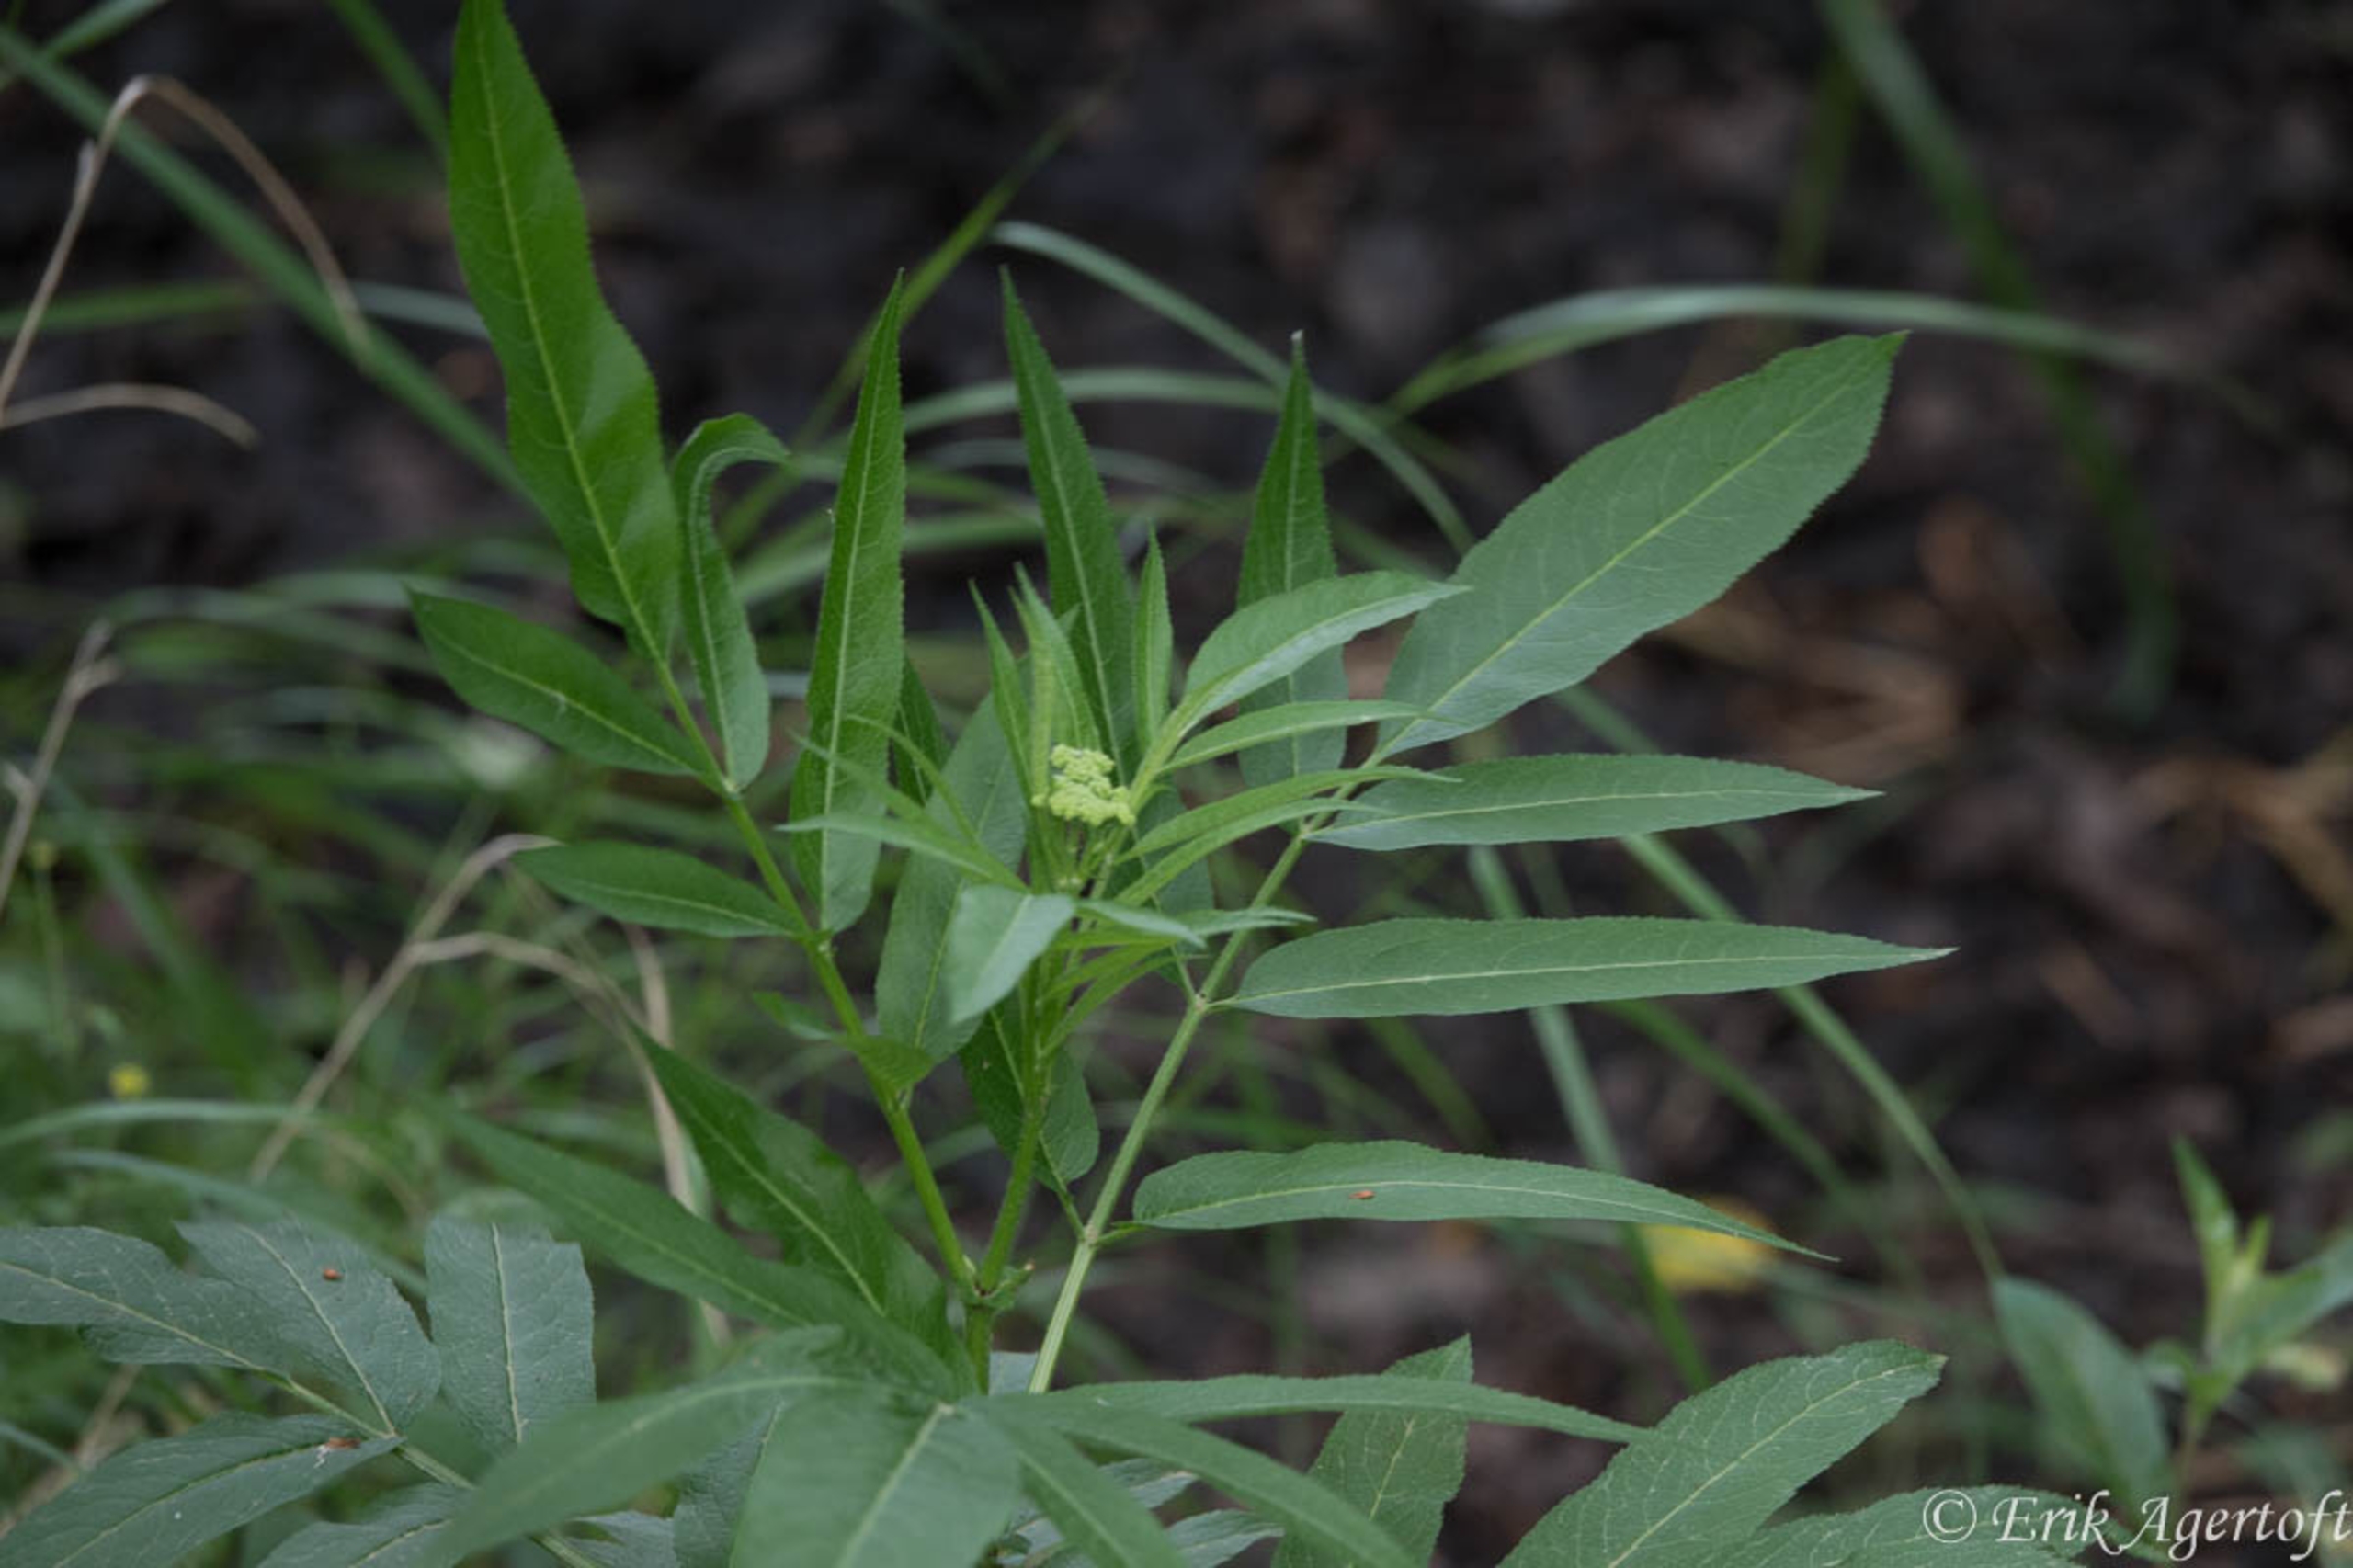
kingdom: Plantae
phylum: Tracheophyta
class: Magnoliopsida
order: Dipsacales
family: Viburnaceae
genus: Sambucus
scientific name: Sambucus ebulus
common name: Sommer-hyld
